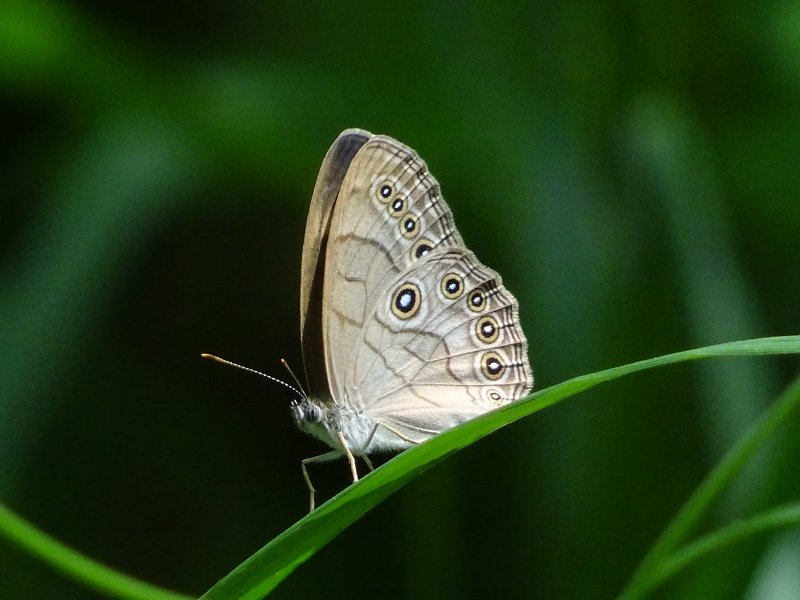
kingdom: Animalia
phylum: Arthropoda
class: Insecta
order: Lepidoptera
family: Nymphalidae
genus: Lethe
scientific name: Lethe eurydice
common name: Appalachian Eyed Brown
